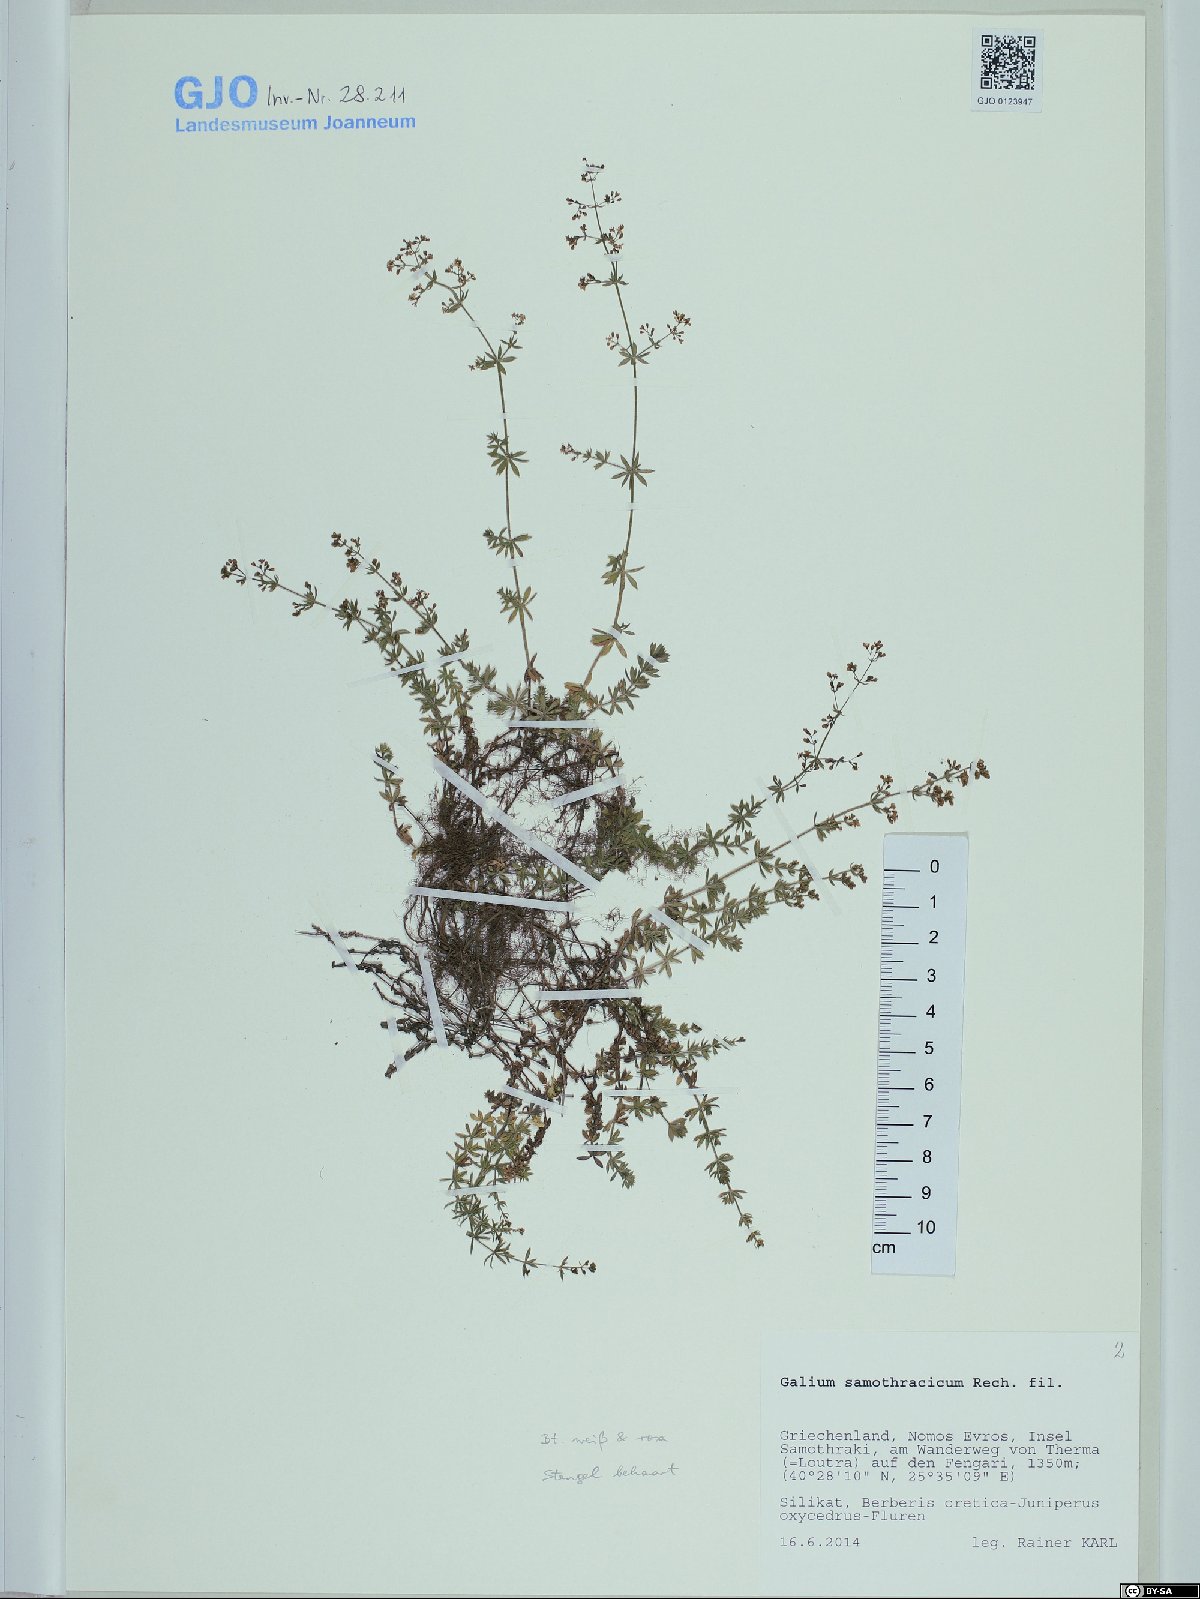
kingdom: Plantae
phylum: Tracheophyta
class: Magnoliopsida
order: Gentianales
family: Rubiaceae
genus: Galium
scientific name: Galium samothracicum
